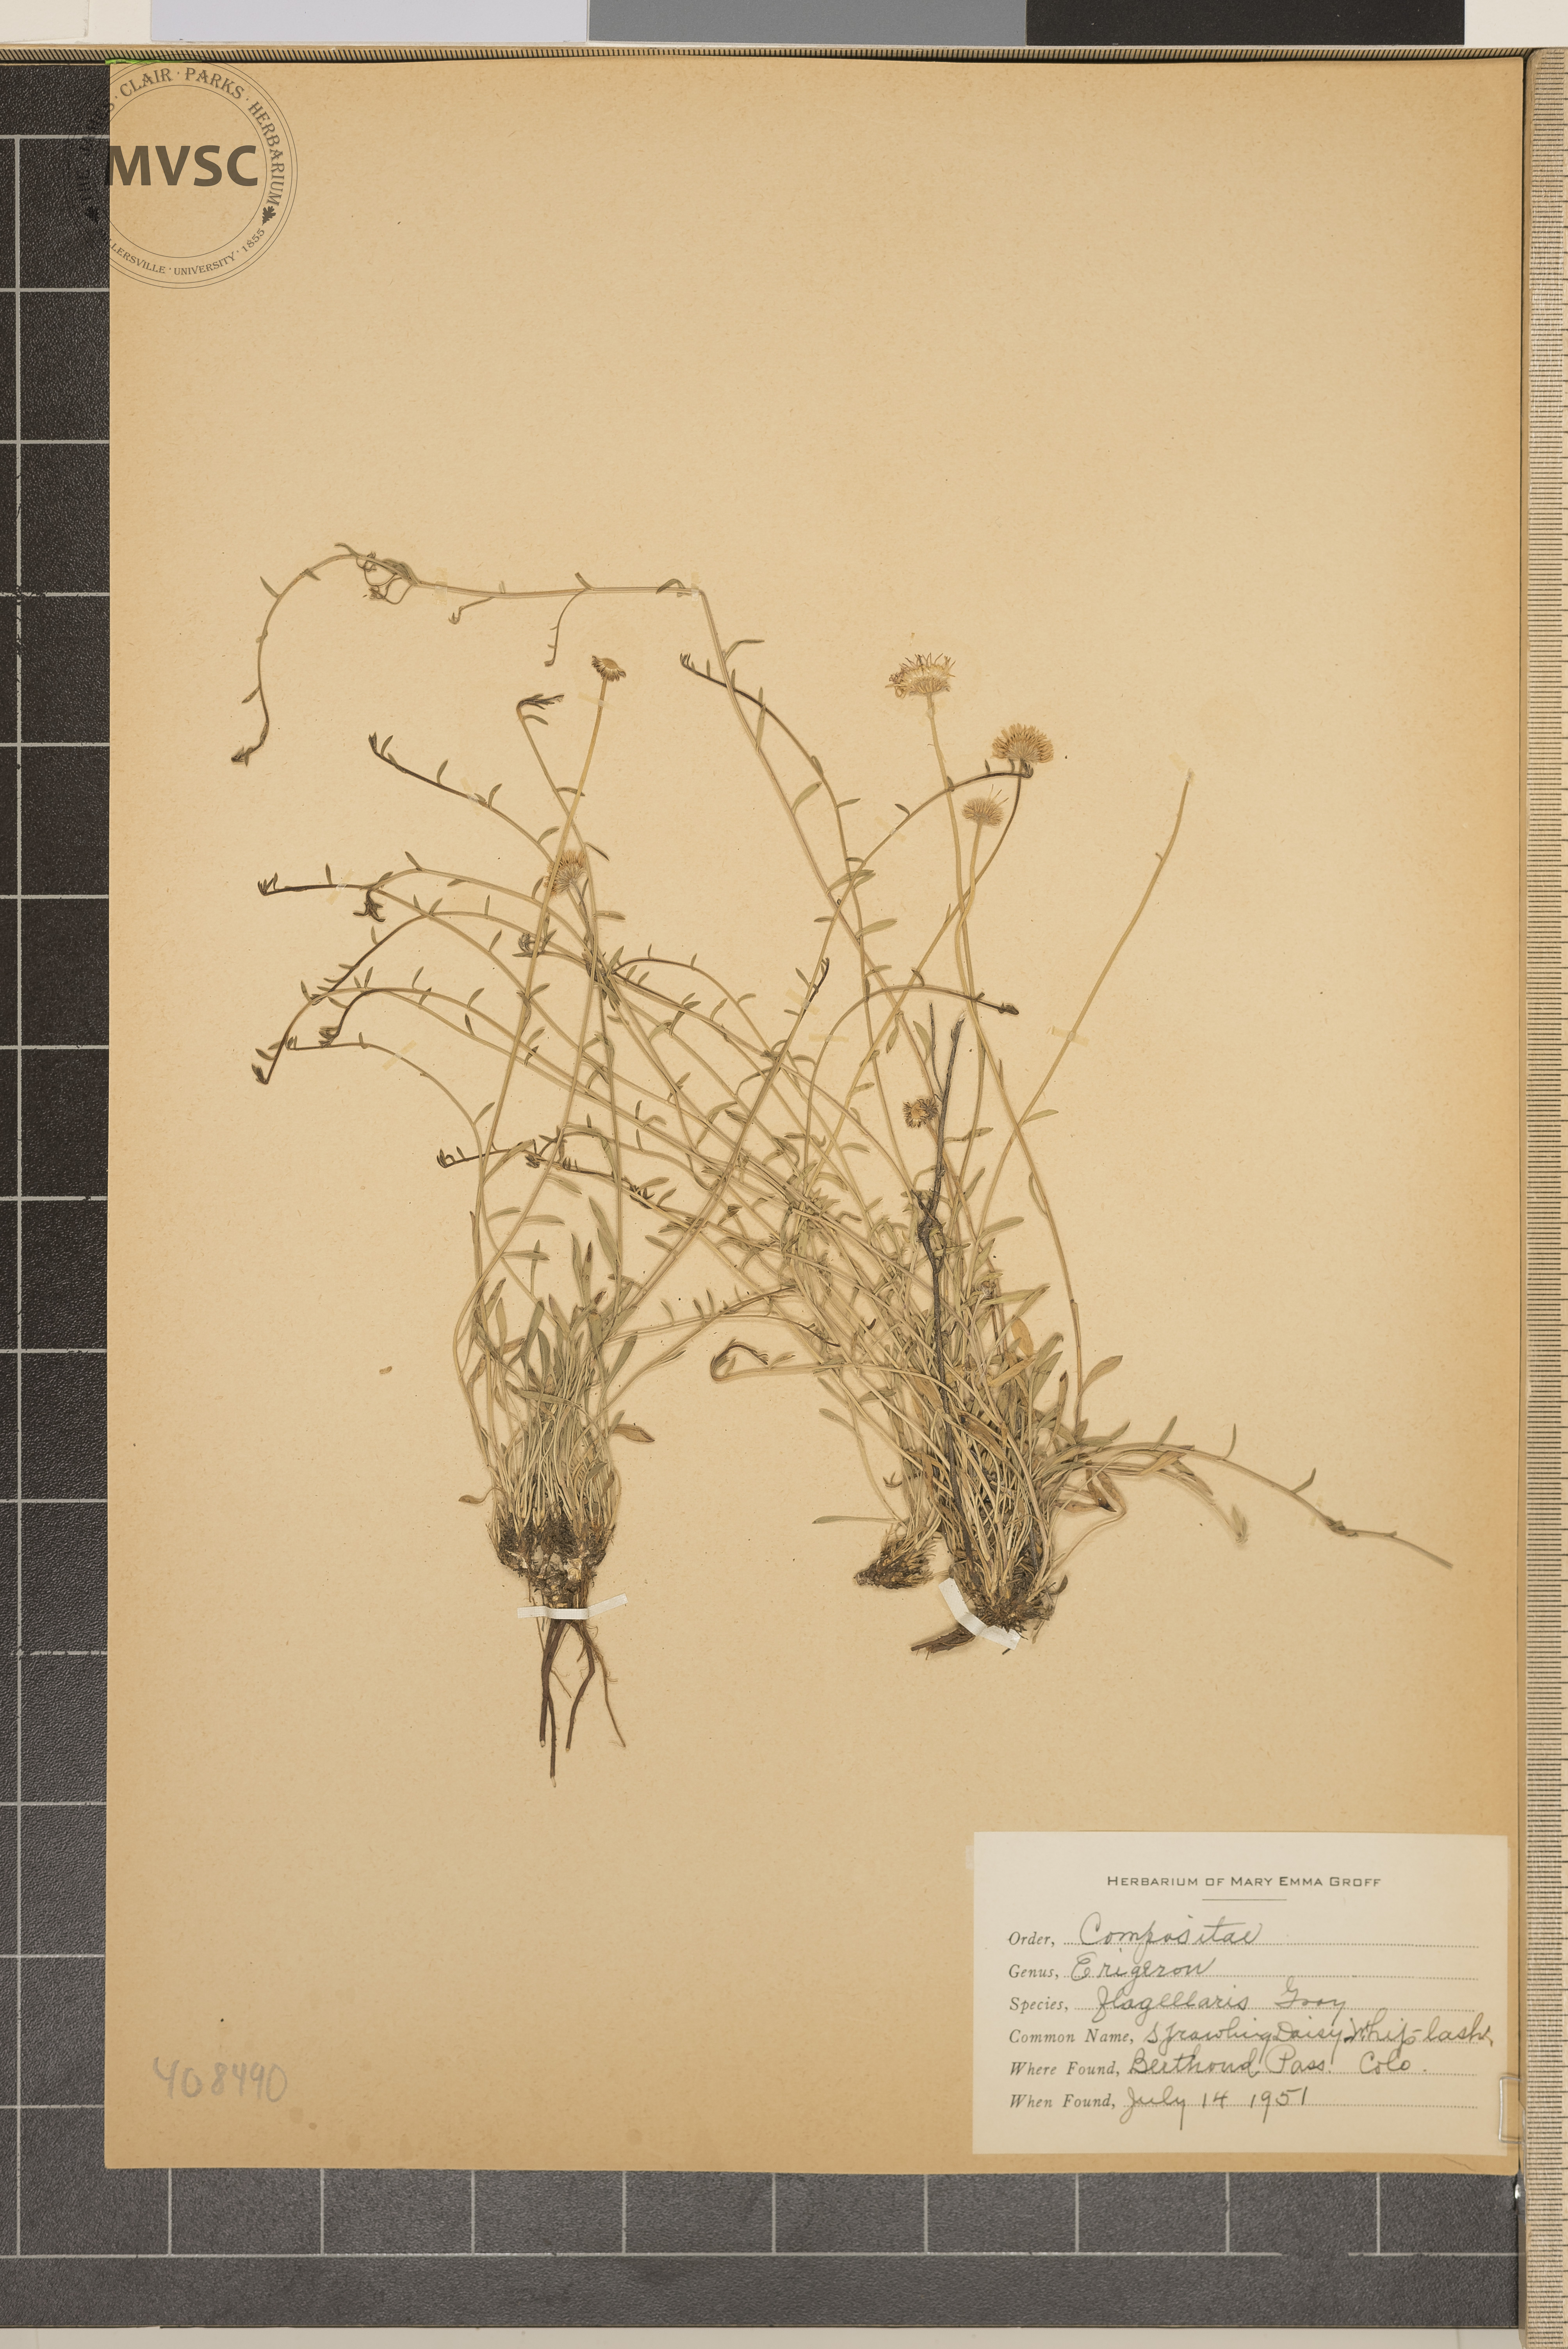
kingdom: Plantae
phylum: Tracheophyta
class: Magnoliopsida
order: Asterales
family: Asteraceae
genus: Erigeron
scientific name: Erigeron flagellaris
